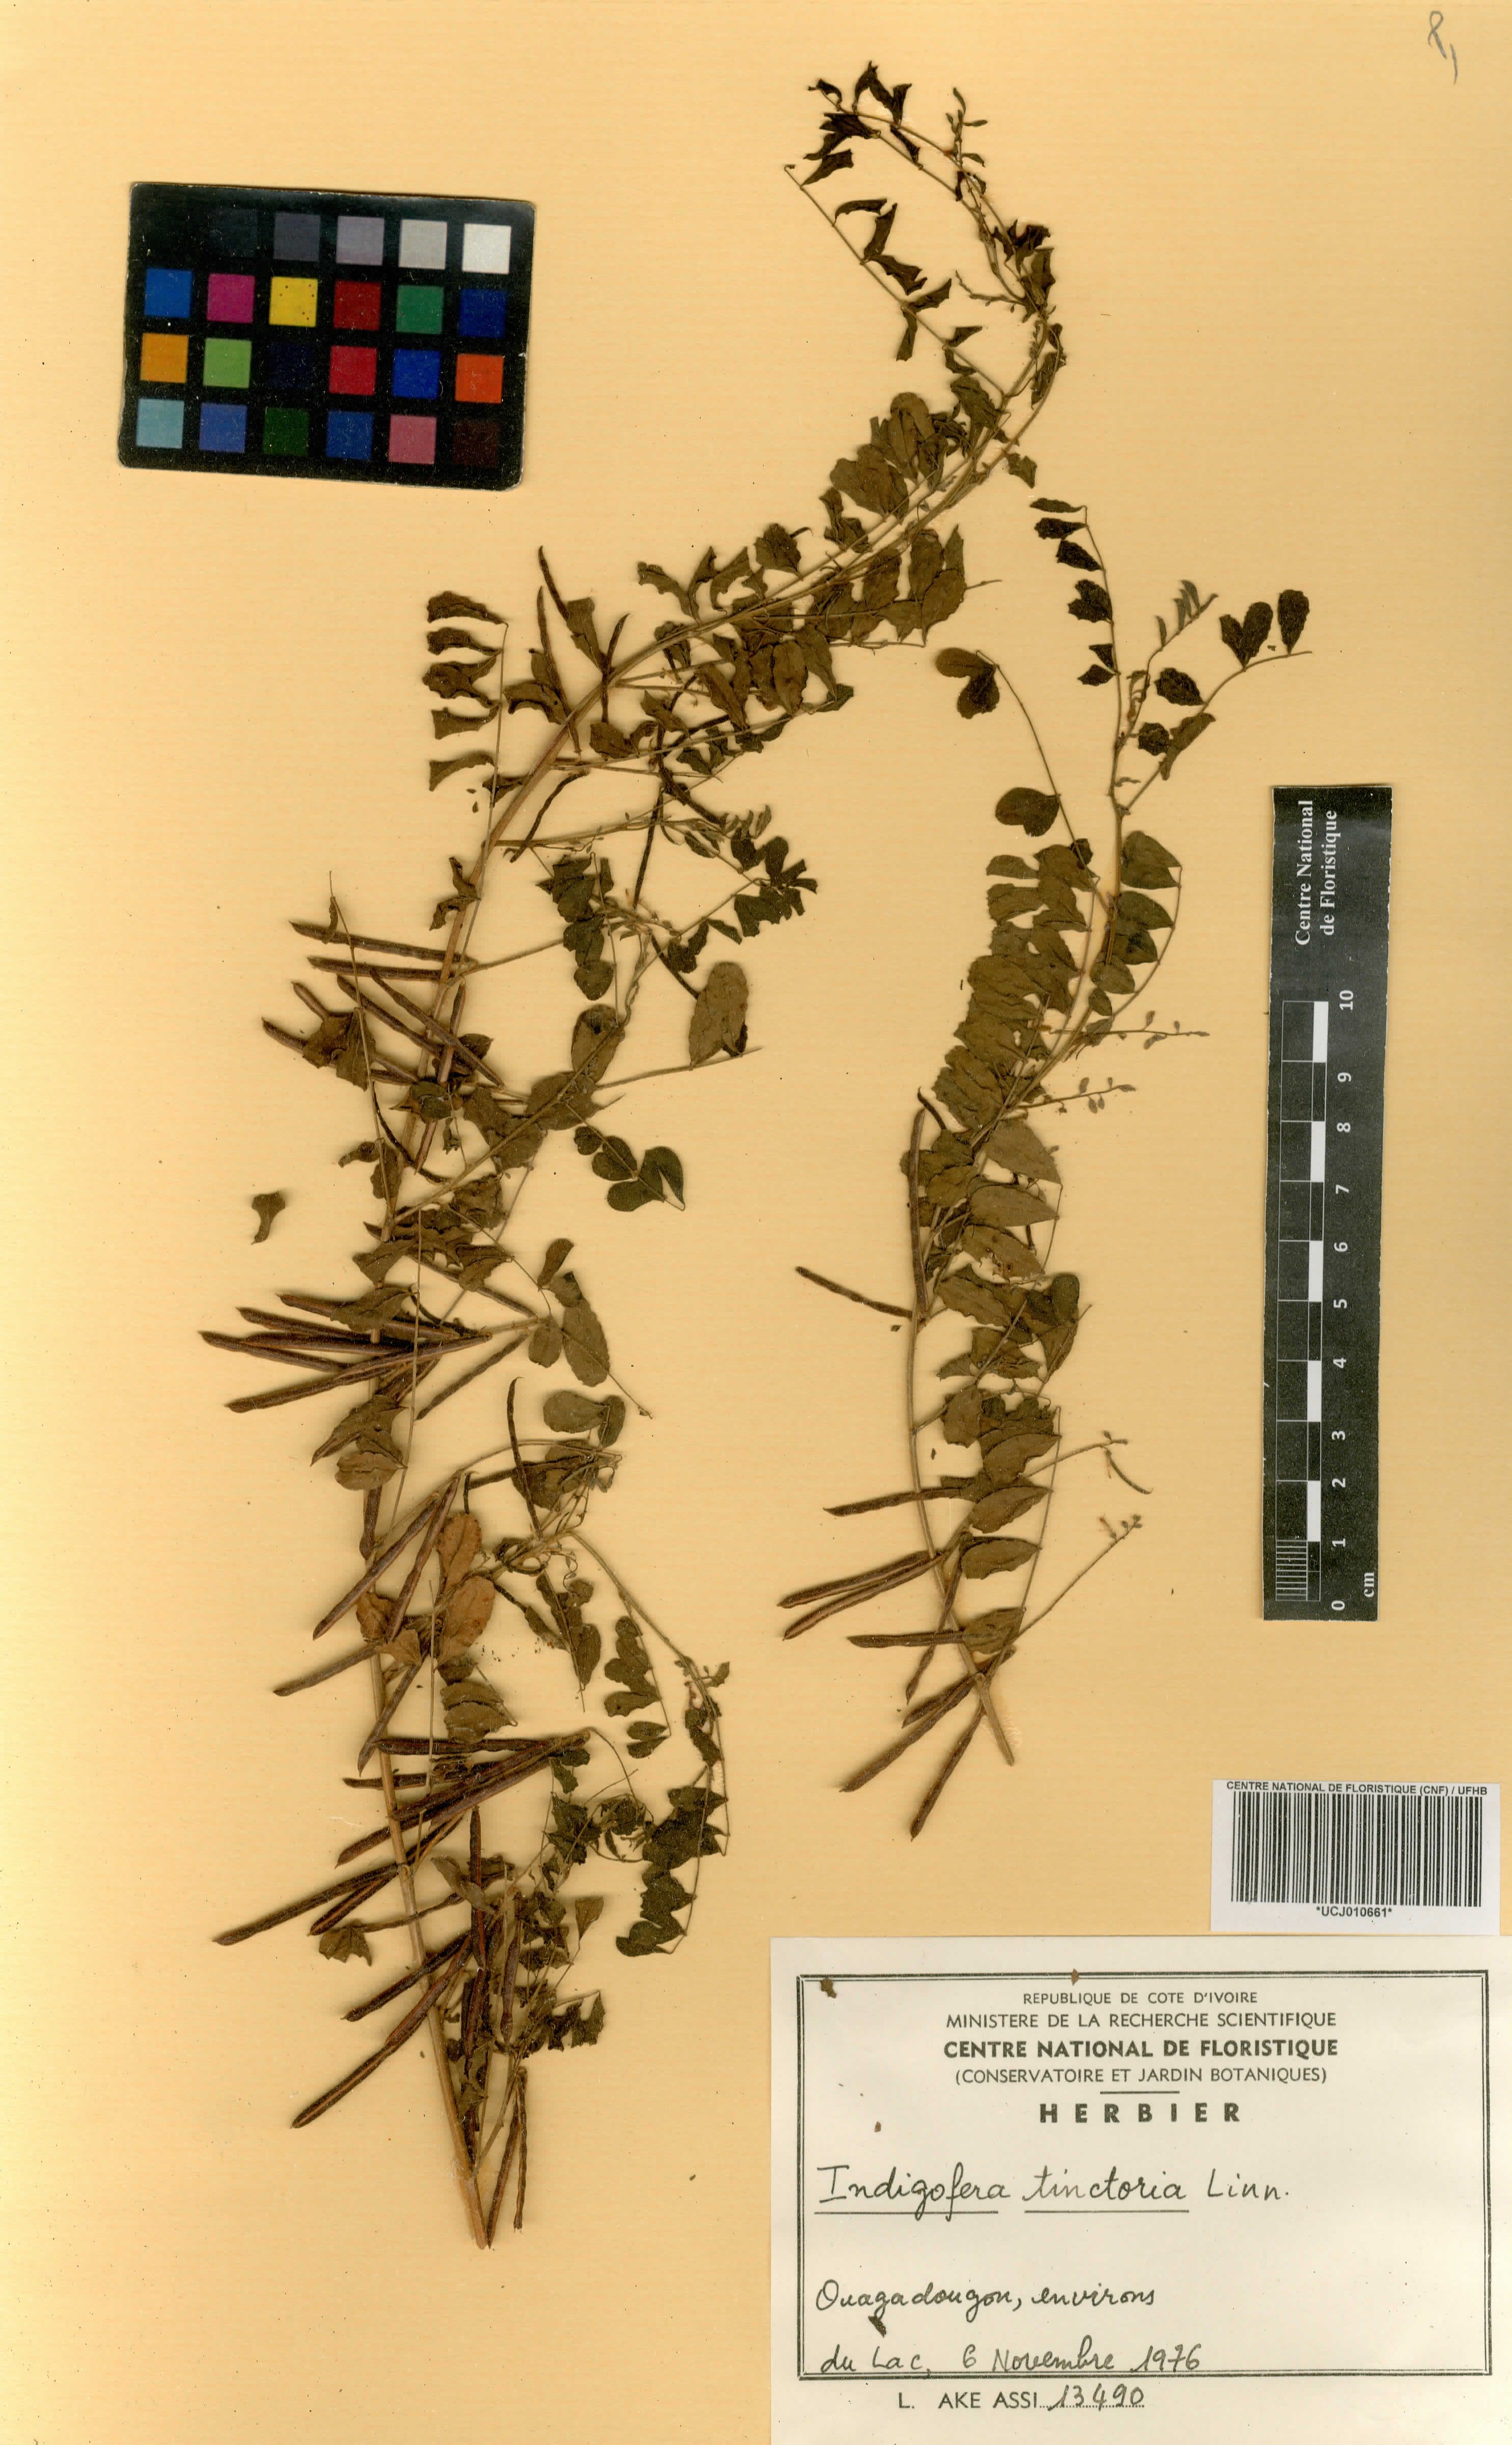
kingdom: Plantae
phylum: Tracheophyta
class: Magnoliopsida
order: Fabales
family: Fabaceae
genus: Indigofera
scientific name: Indigofera tinctoria
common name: True indigo
